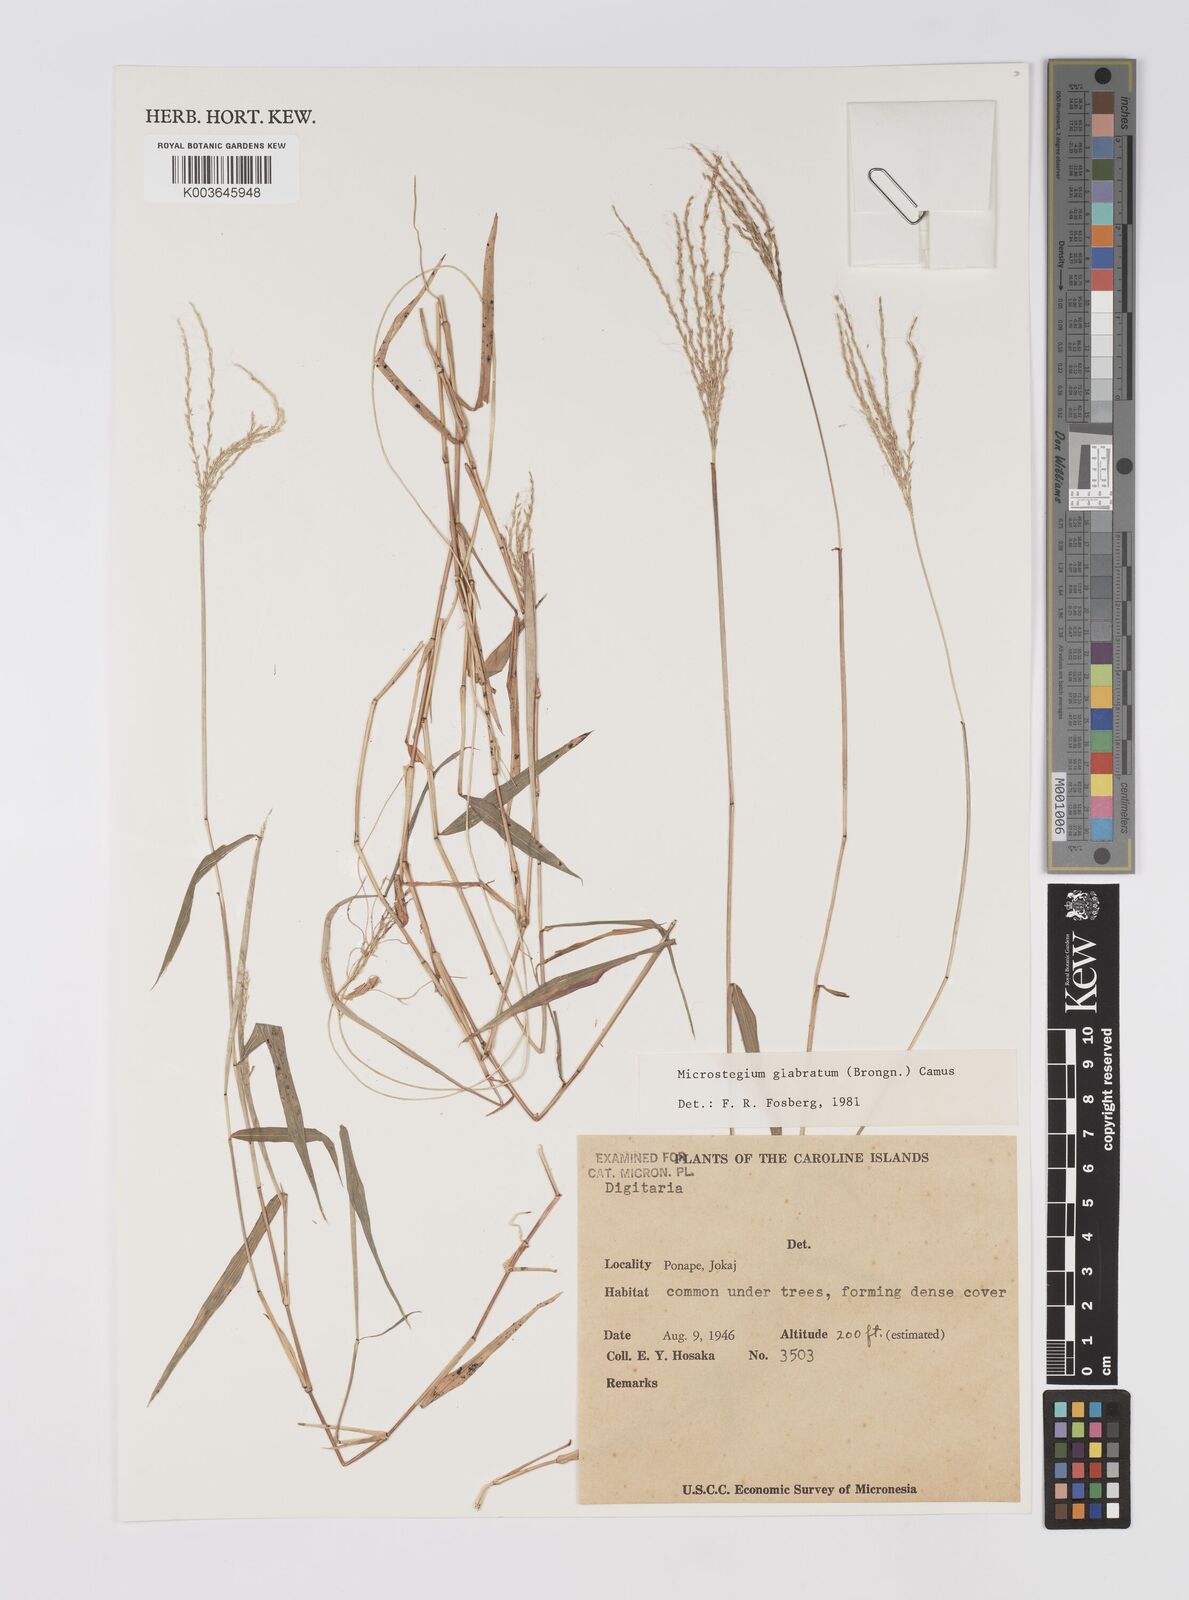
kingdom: Plantae
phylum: Tracheophyta
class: Liliopsida
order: Poales
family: Poaceae
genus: Microstegium
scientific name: Microstegium glabratum
